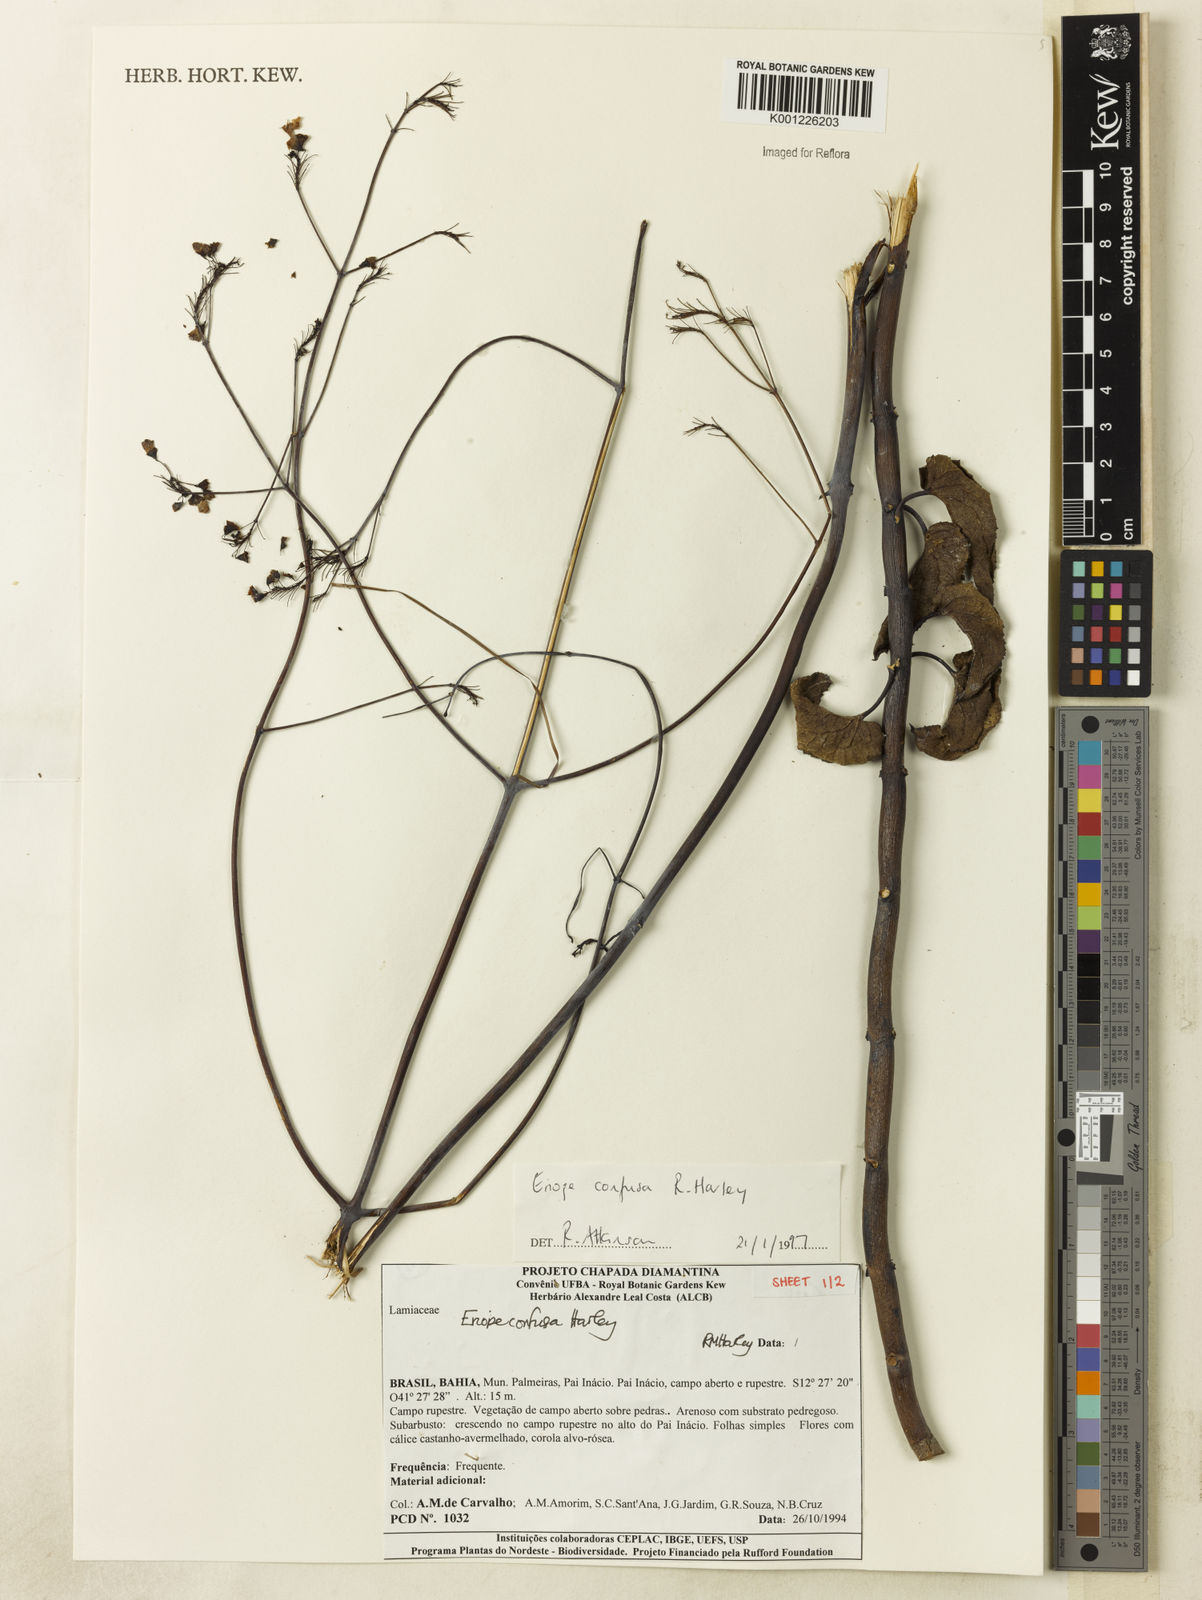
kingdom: Plantae
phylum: Tracheophyta
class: Magnoliopsida
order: Lamiales
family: Lamiaceae
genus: Eriope
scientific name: Eriope confusa
